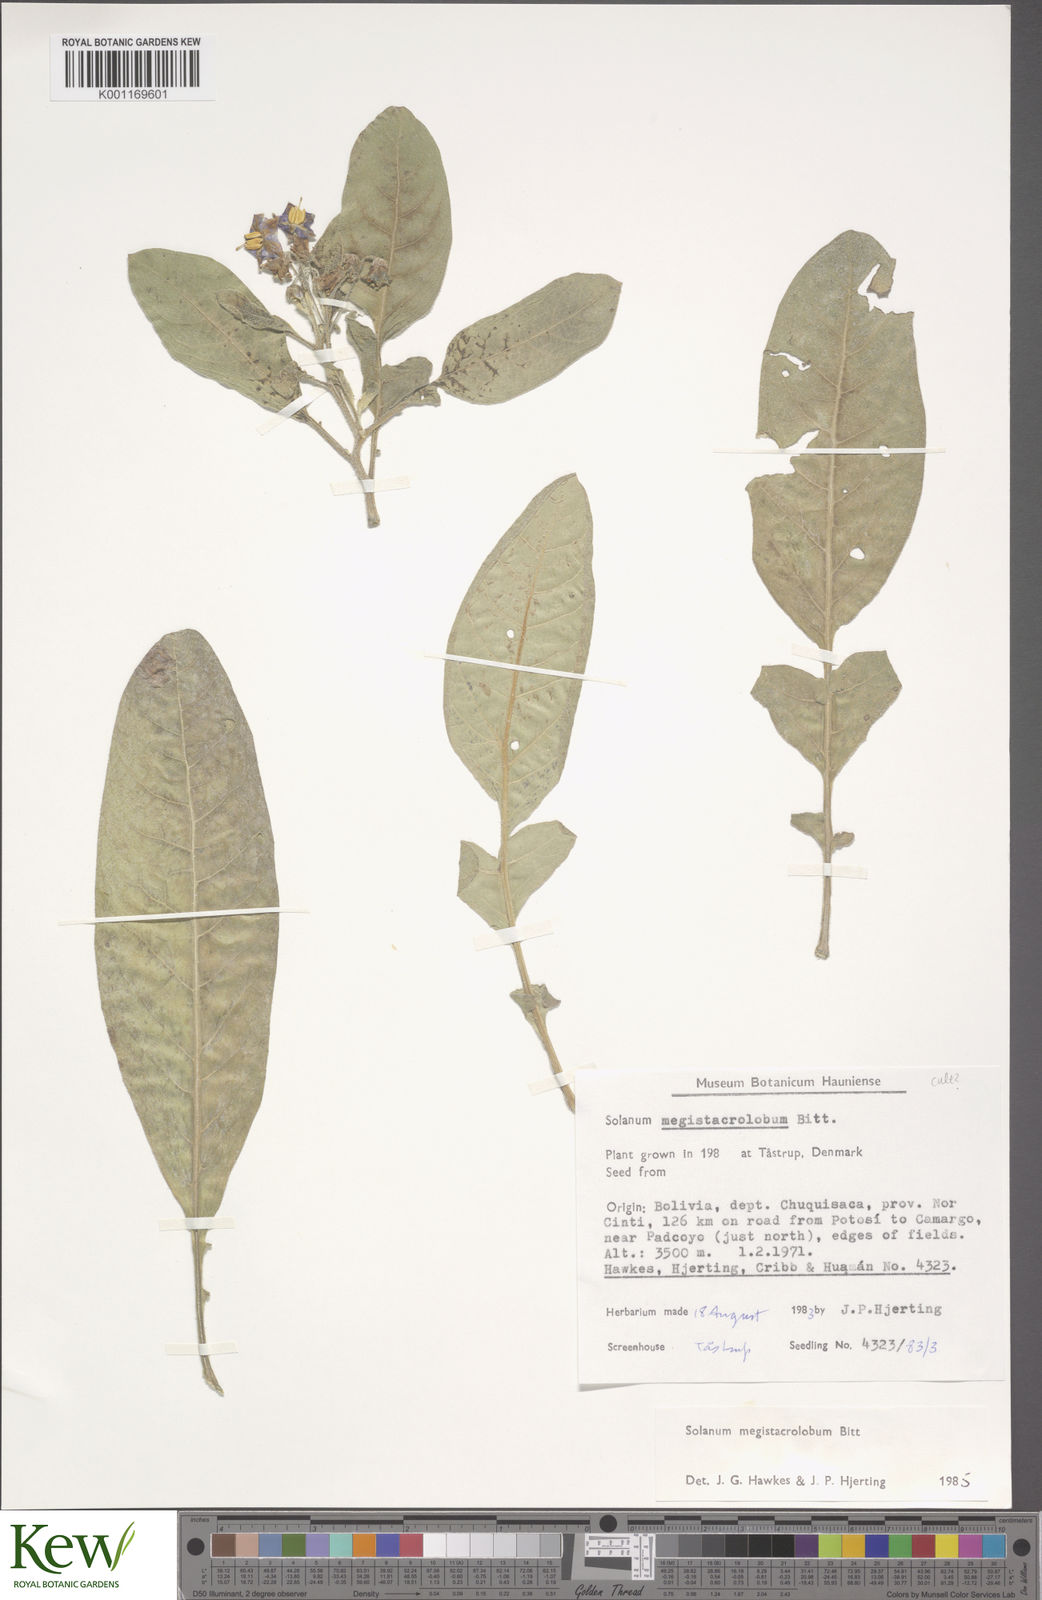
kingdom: Plantae
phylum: Tracheophyta
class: Magnoliopsida
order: Solanales
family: Solanaceae
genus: Solanum
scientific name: Solanum boliviense
